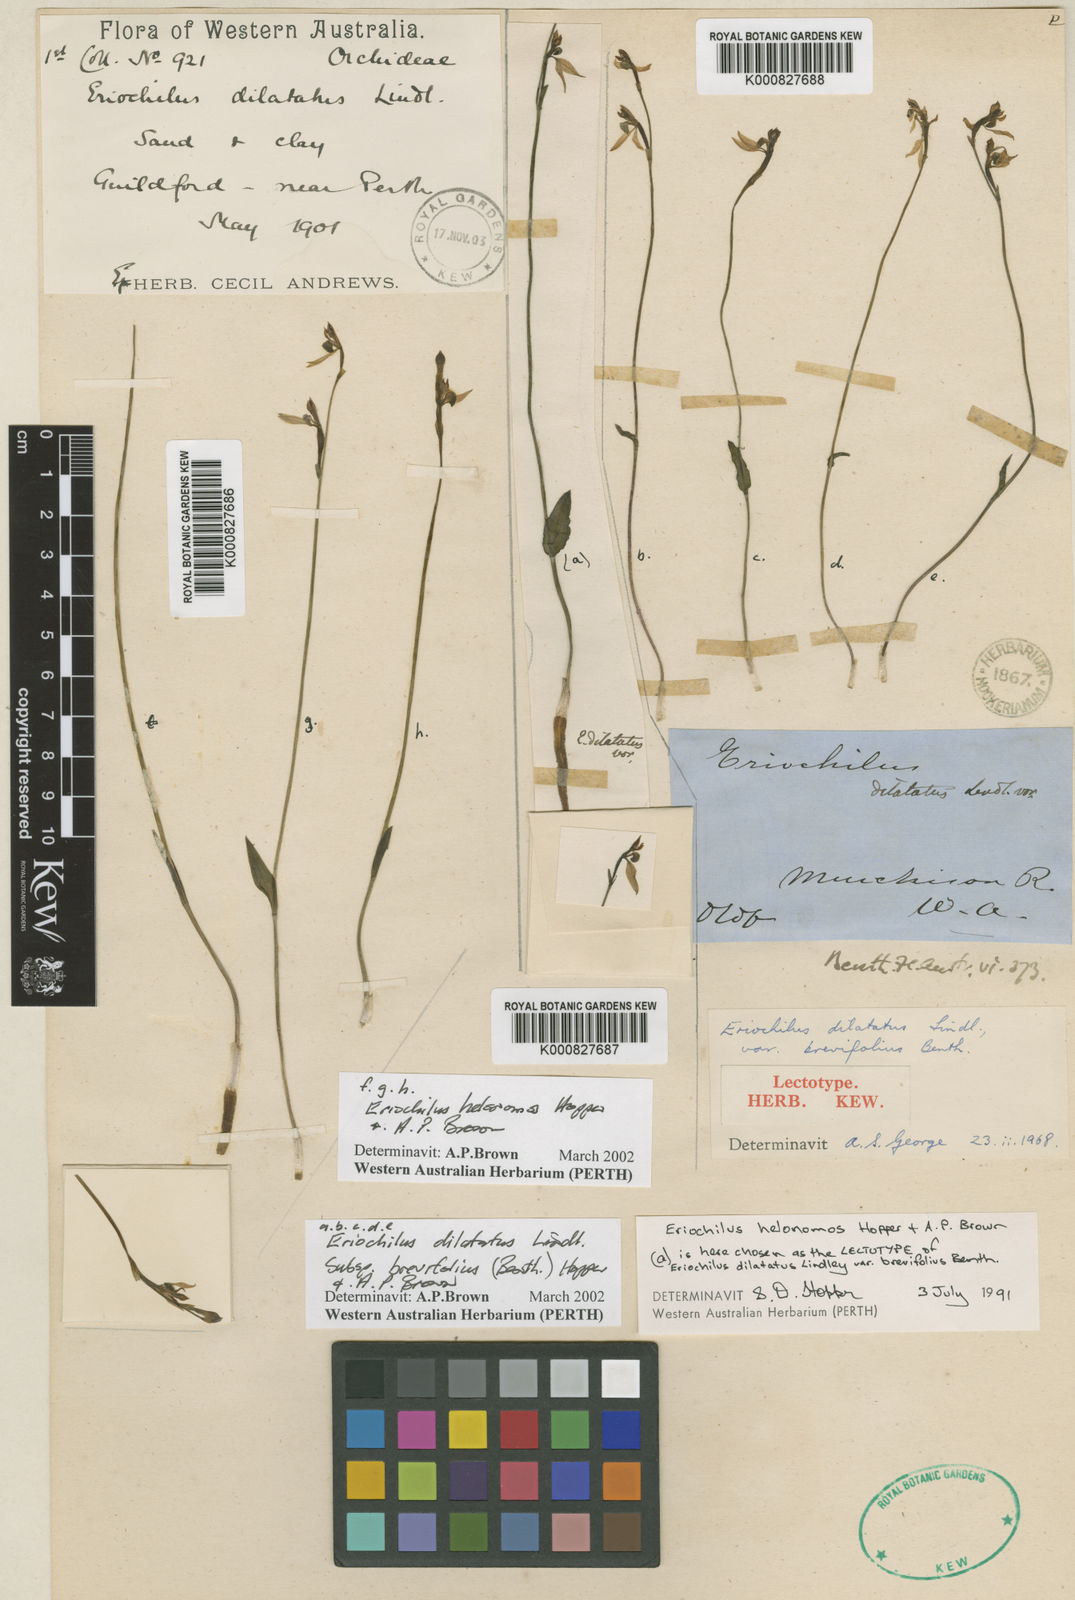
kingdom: Plantae
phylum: Tracheophyta
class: Liliopsida
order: Asparagales
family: Orchidaceae
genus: Eriochilus
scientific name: Eriochilus dilatatus
